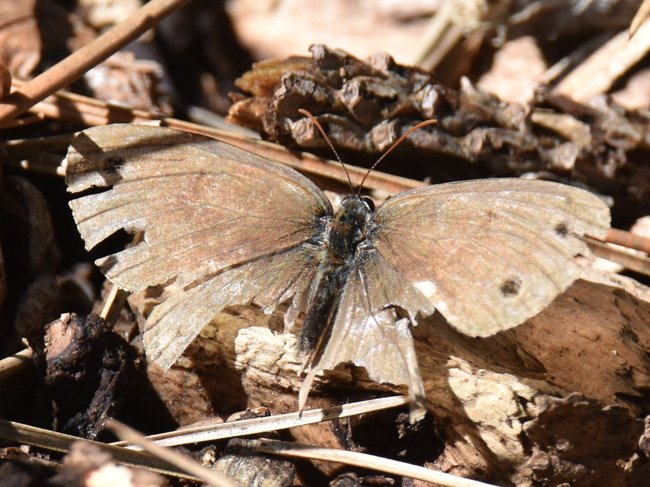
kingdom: Animalia
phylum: Arthropoda
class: Insecta
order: Lepidoptera
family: Nymphalidae
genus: Euptychia
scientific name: Euptychia cymela
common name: Little Wood Satyr
